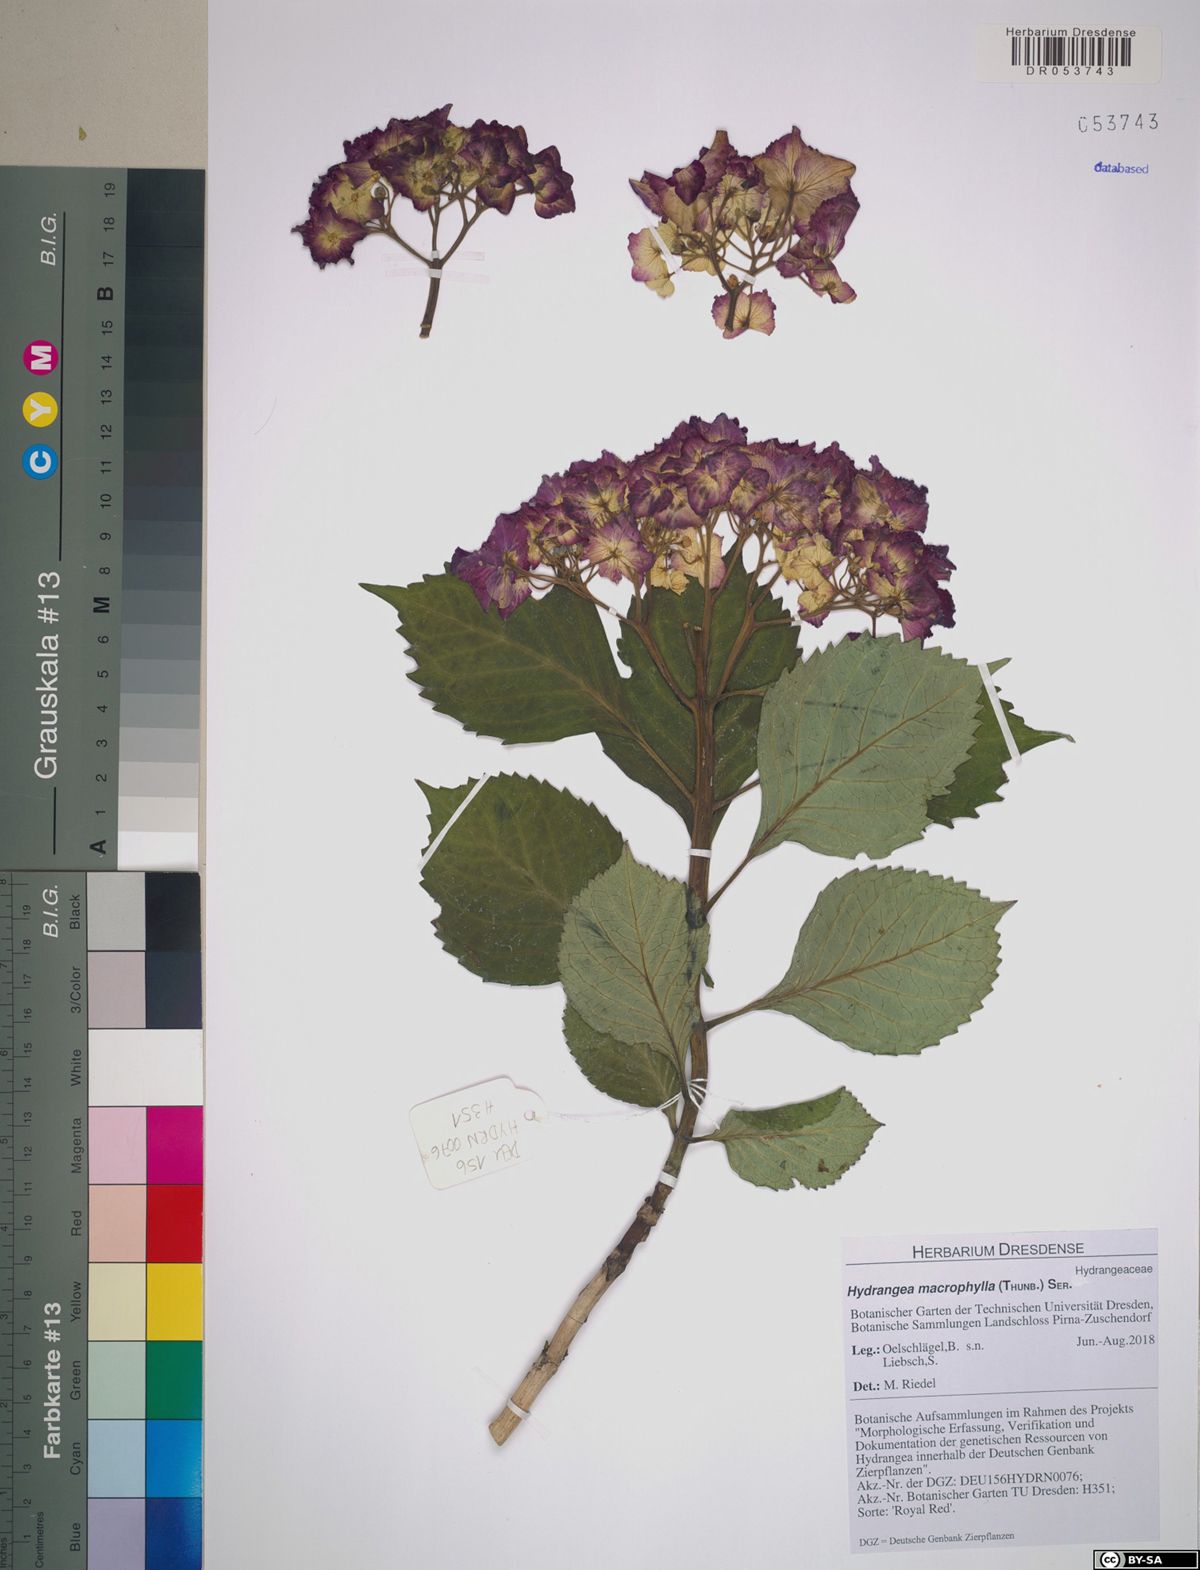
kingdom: Plantae
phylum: Tracheophyta
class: Magnoliopsida
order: Cornales
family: Hydrangeaceae
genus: Hydrangea
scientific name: Hydrangea macrophylla
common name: Hydrangea
